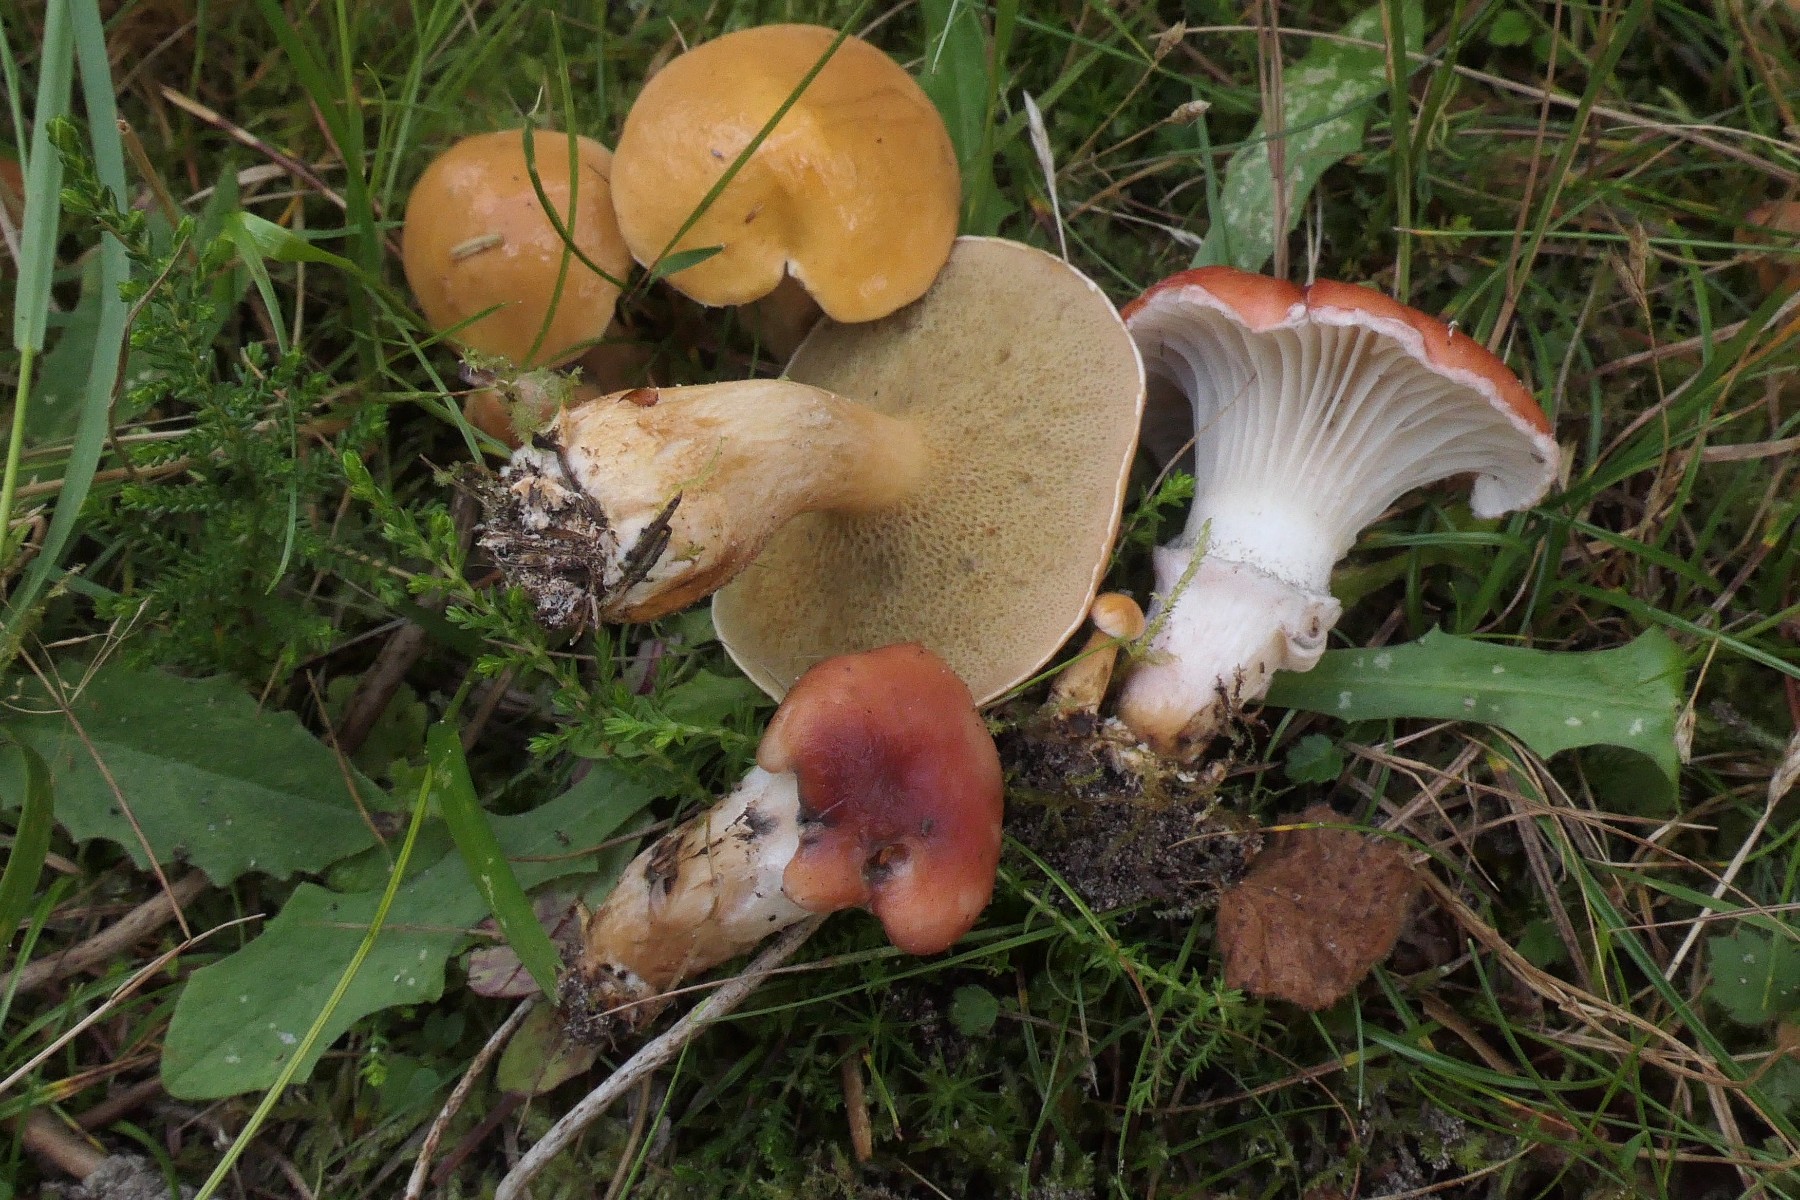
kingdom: Fungi
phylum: Basidiomycota
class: Agaricomycetes
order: Boletales
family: Gomphidiaceae
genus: Gomphidius
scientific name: Gomphidius roseus
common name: rosenrød slimslør
